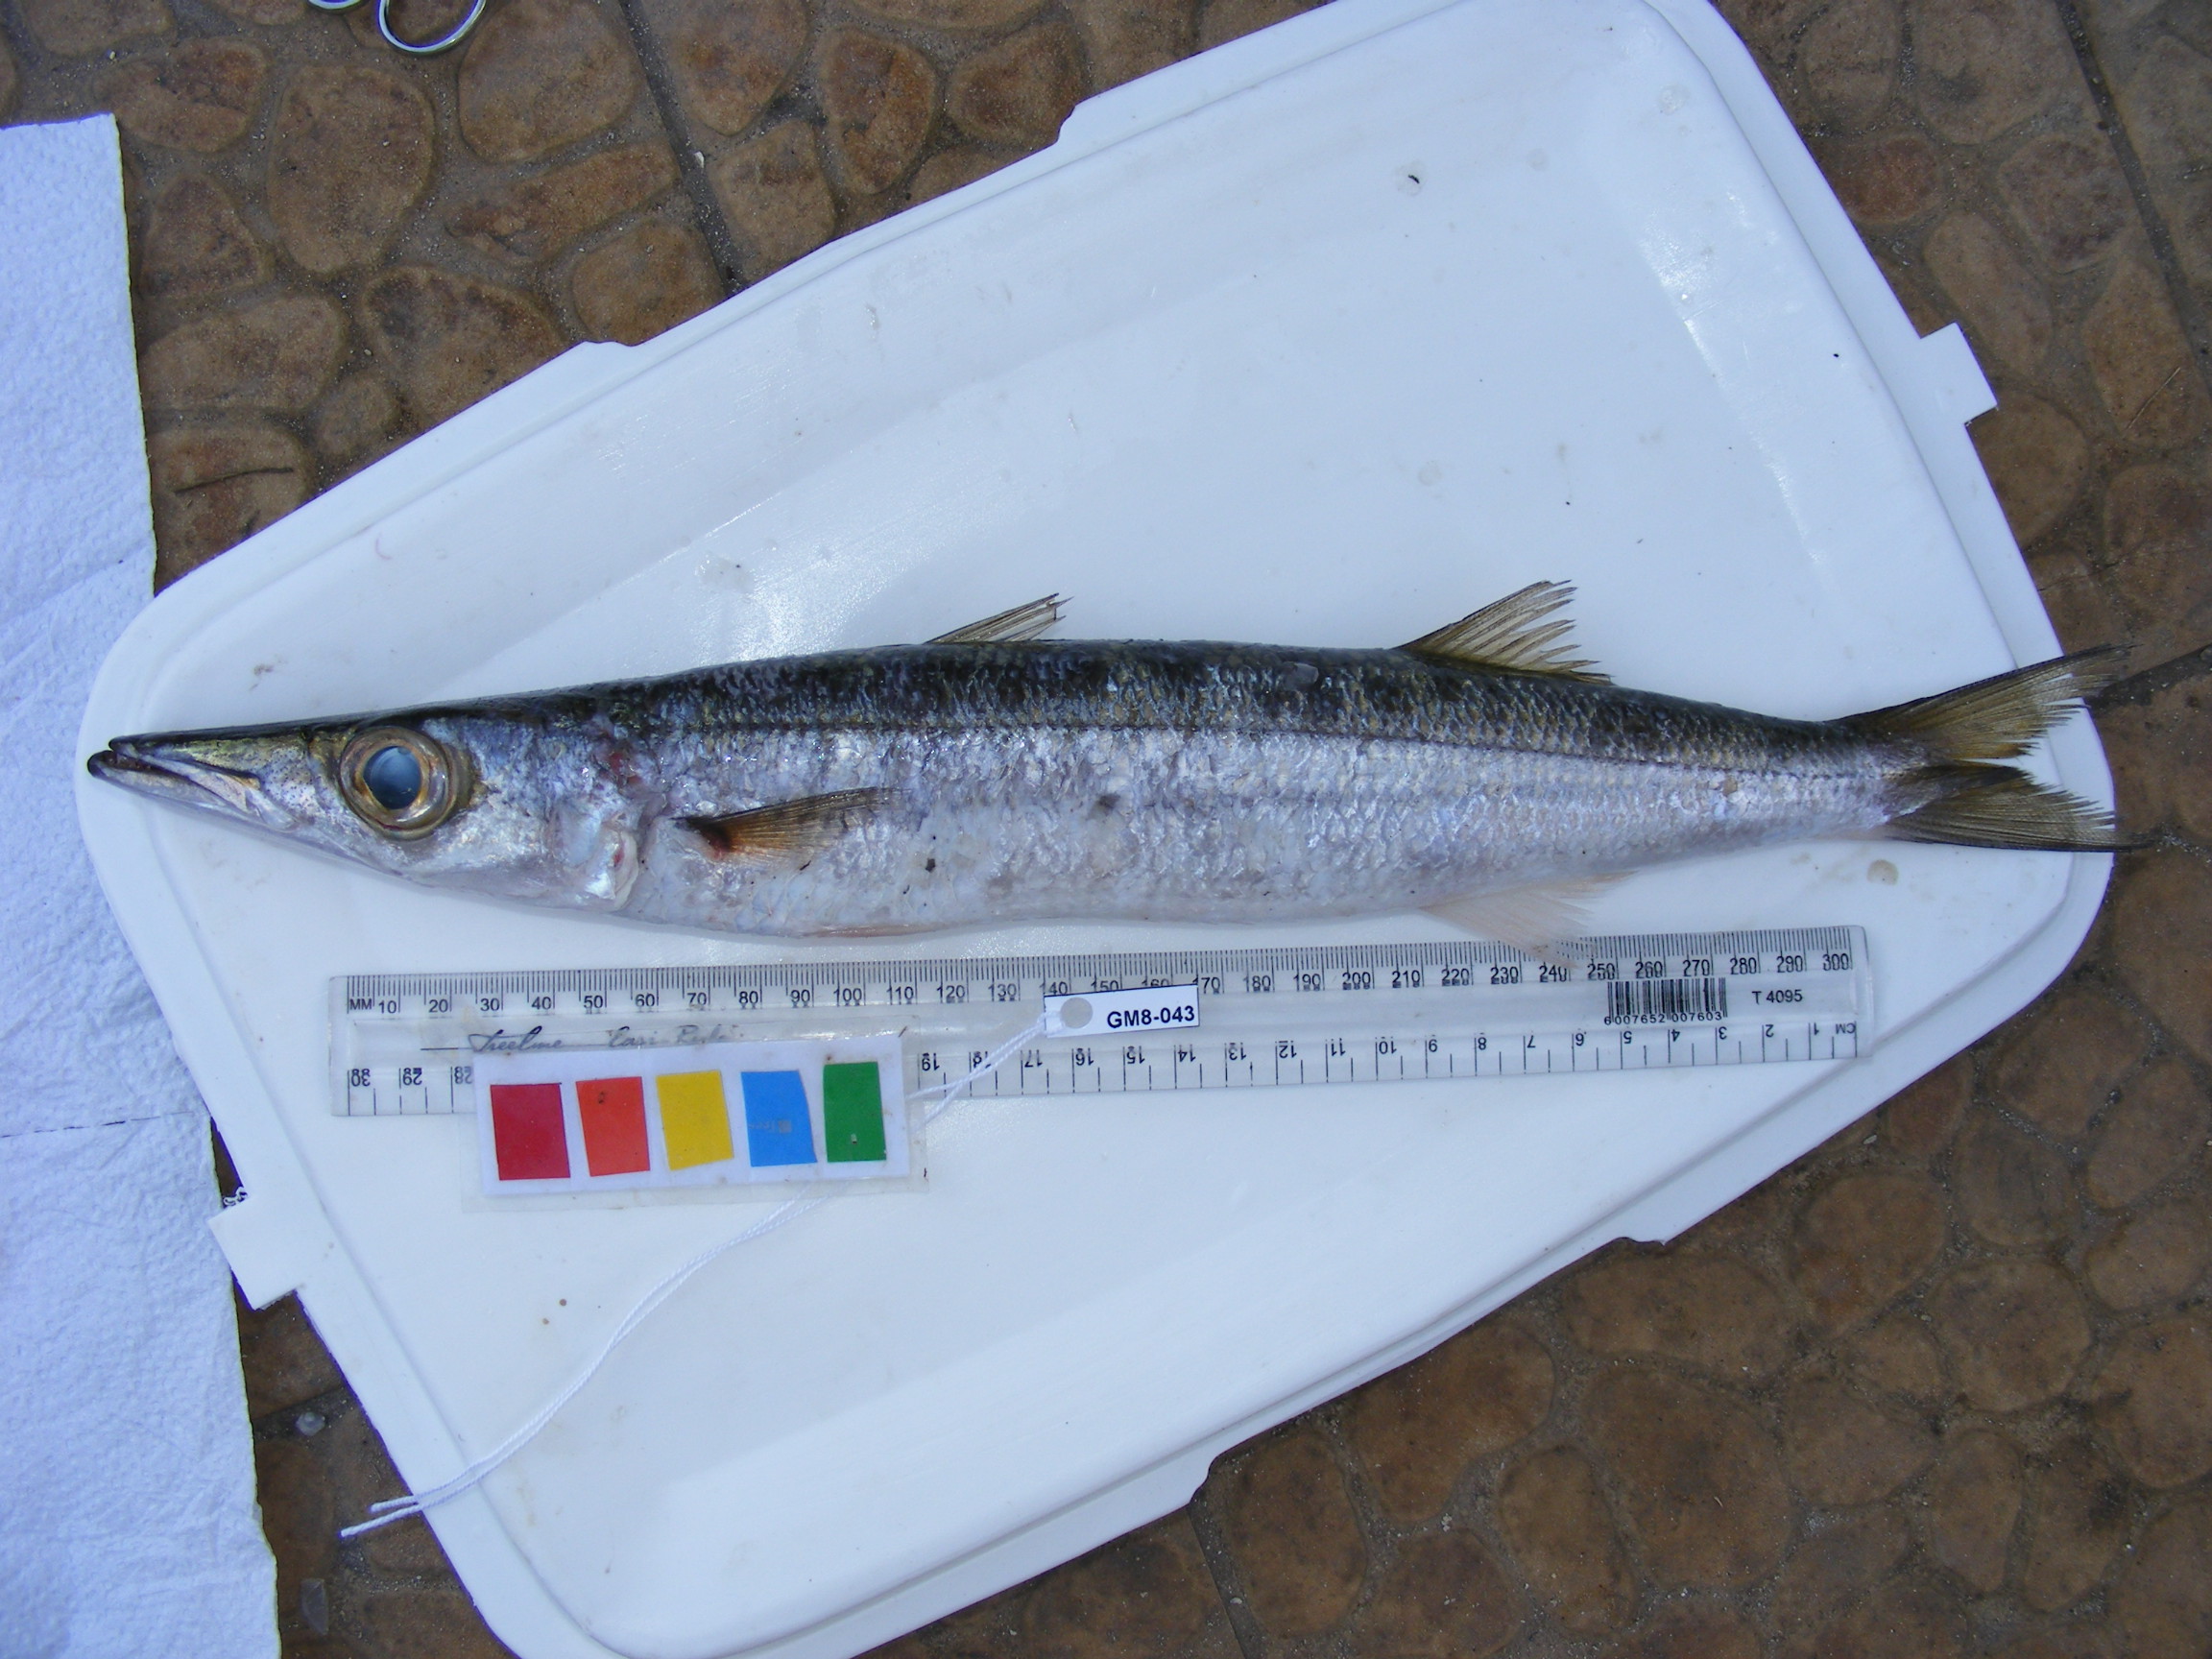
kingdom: Animalia
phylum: Chordata
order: Perciformes
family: Sphyraenidae
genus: Sphyraena
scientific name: Sphyraena barracuda
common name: Great barracuda
